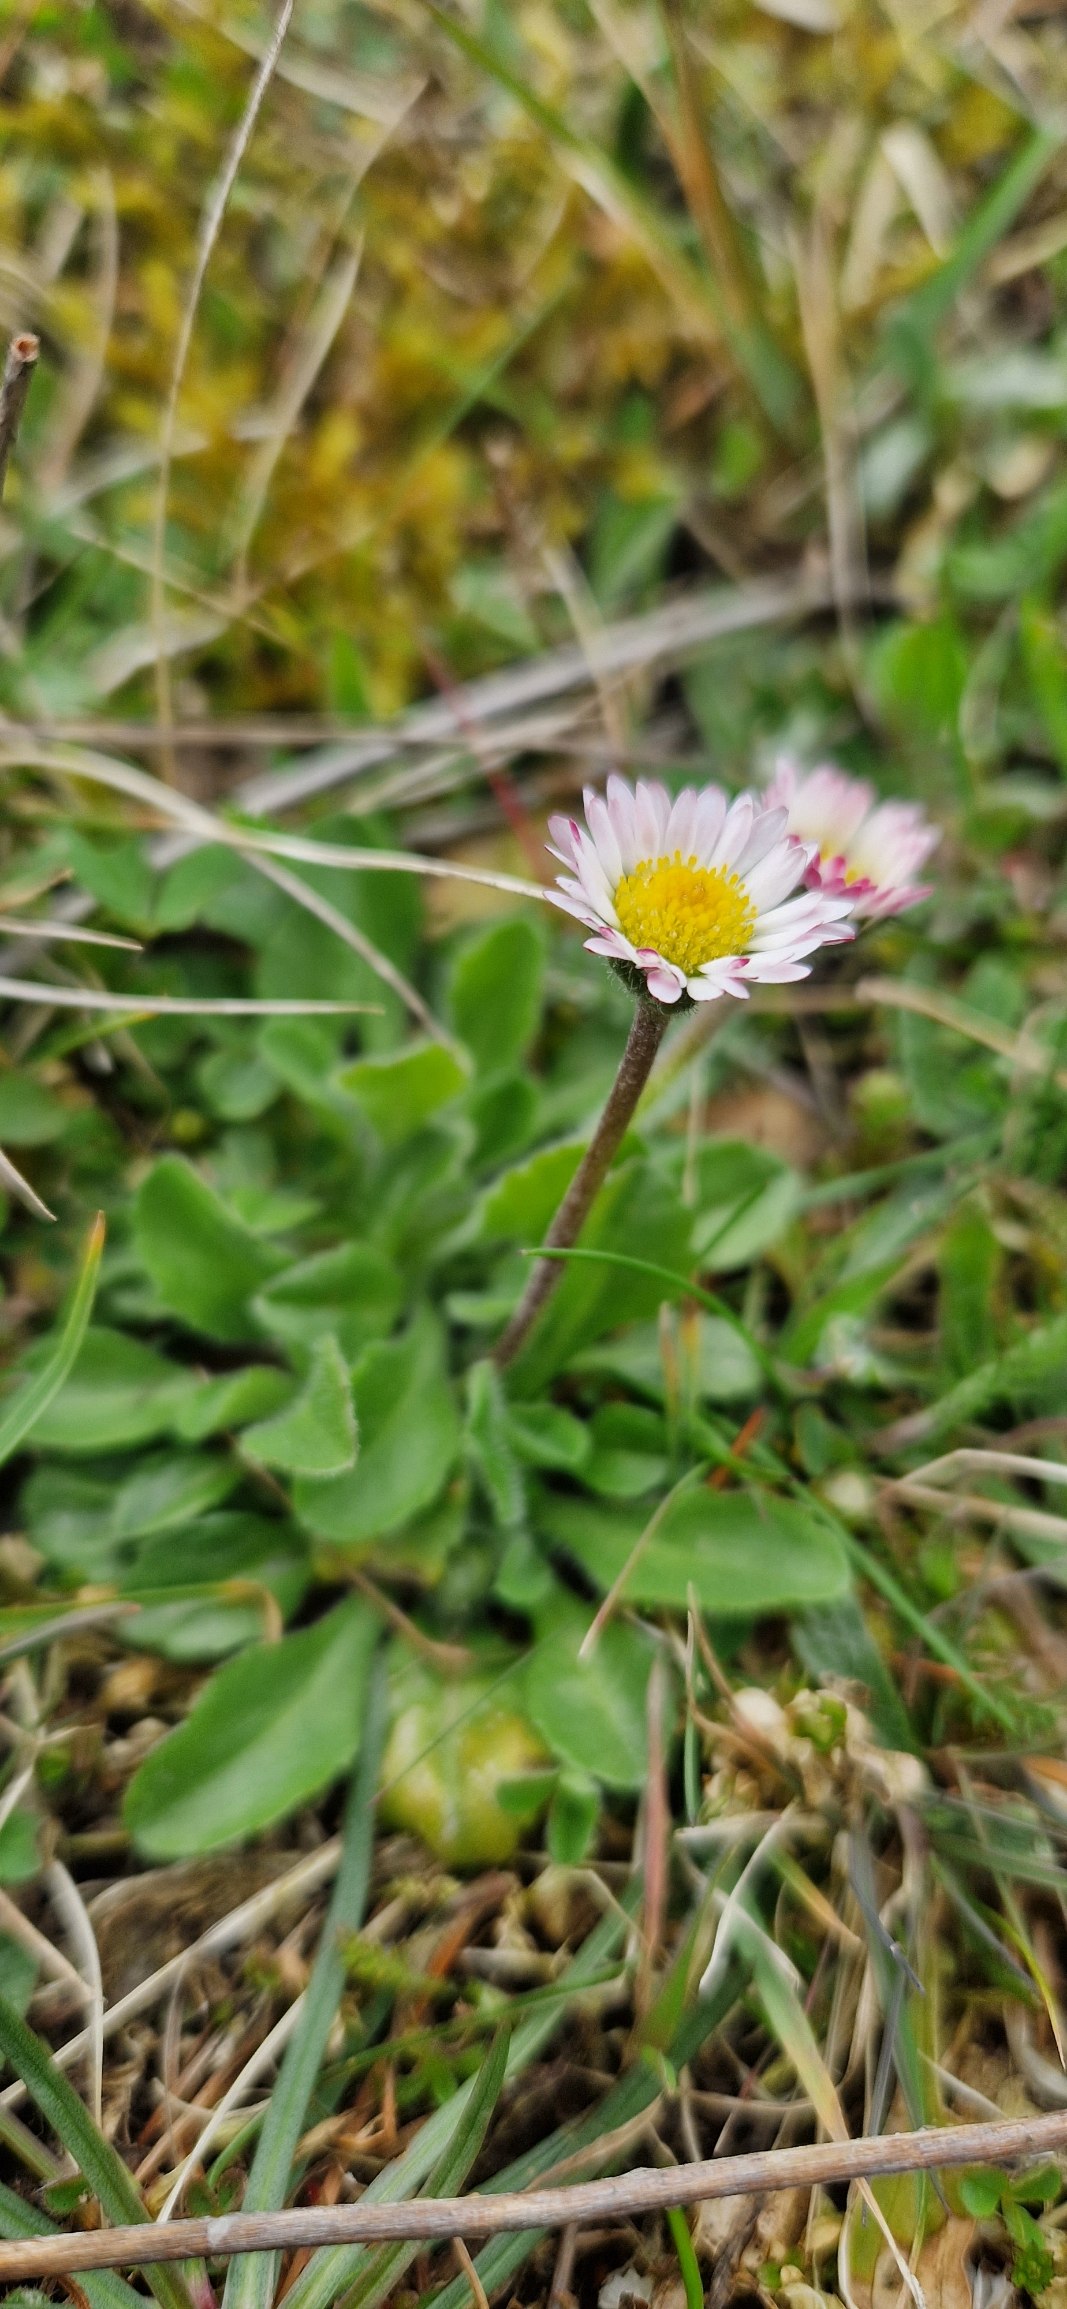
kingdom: Plantae
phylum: Tracheophyta
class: Magnoliopsida
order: Asterales
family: Asteraceae
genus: Bellis
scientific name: Bellis perennis
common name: Tusindfryd
